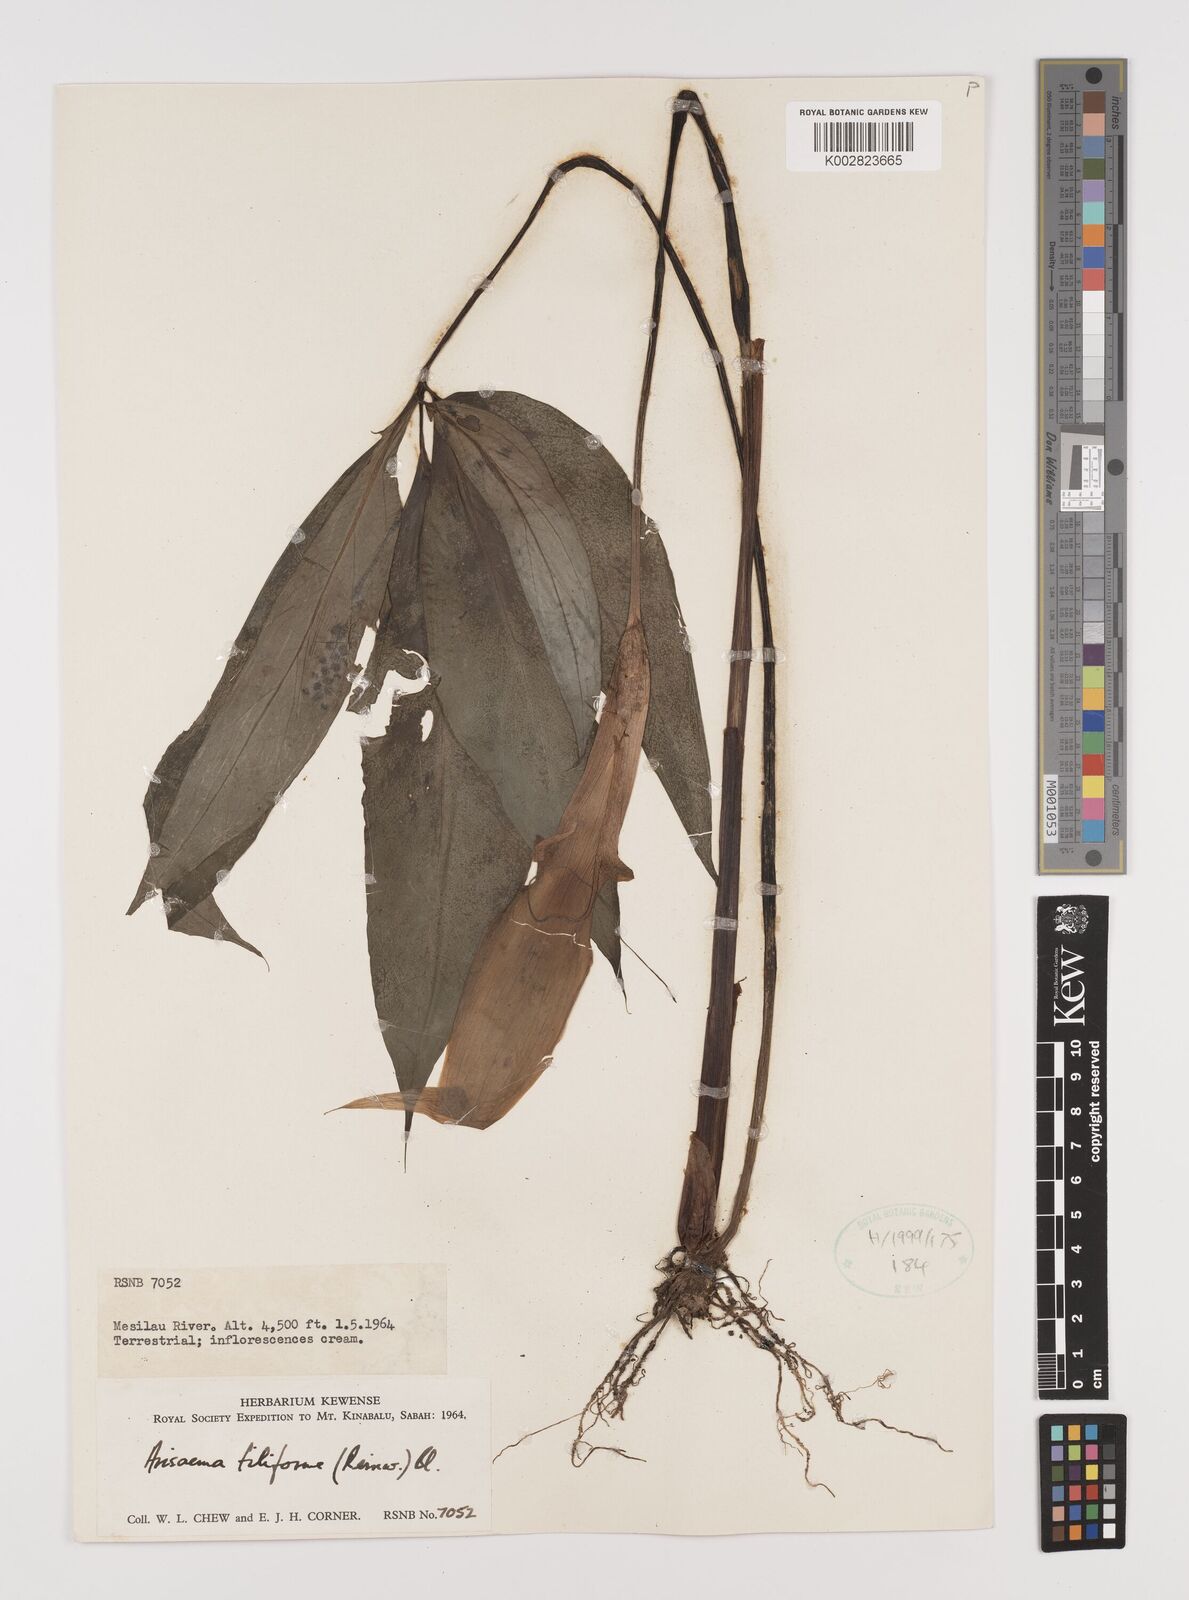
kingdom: Plantae
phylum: Tracheophyta
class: Liliopsida
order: Alismatales
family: Araceae
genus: Arisaema
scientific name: Arisaema filiforme
